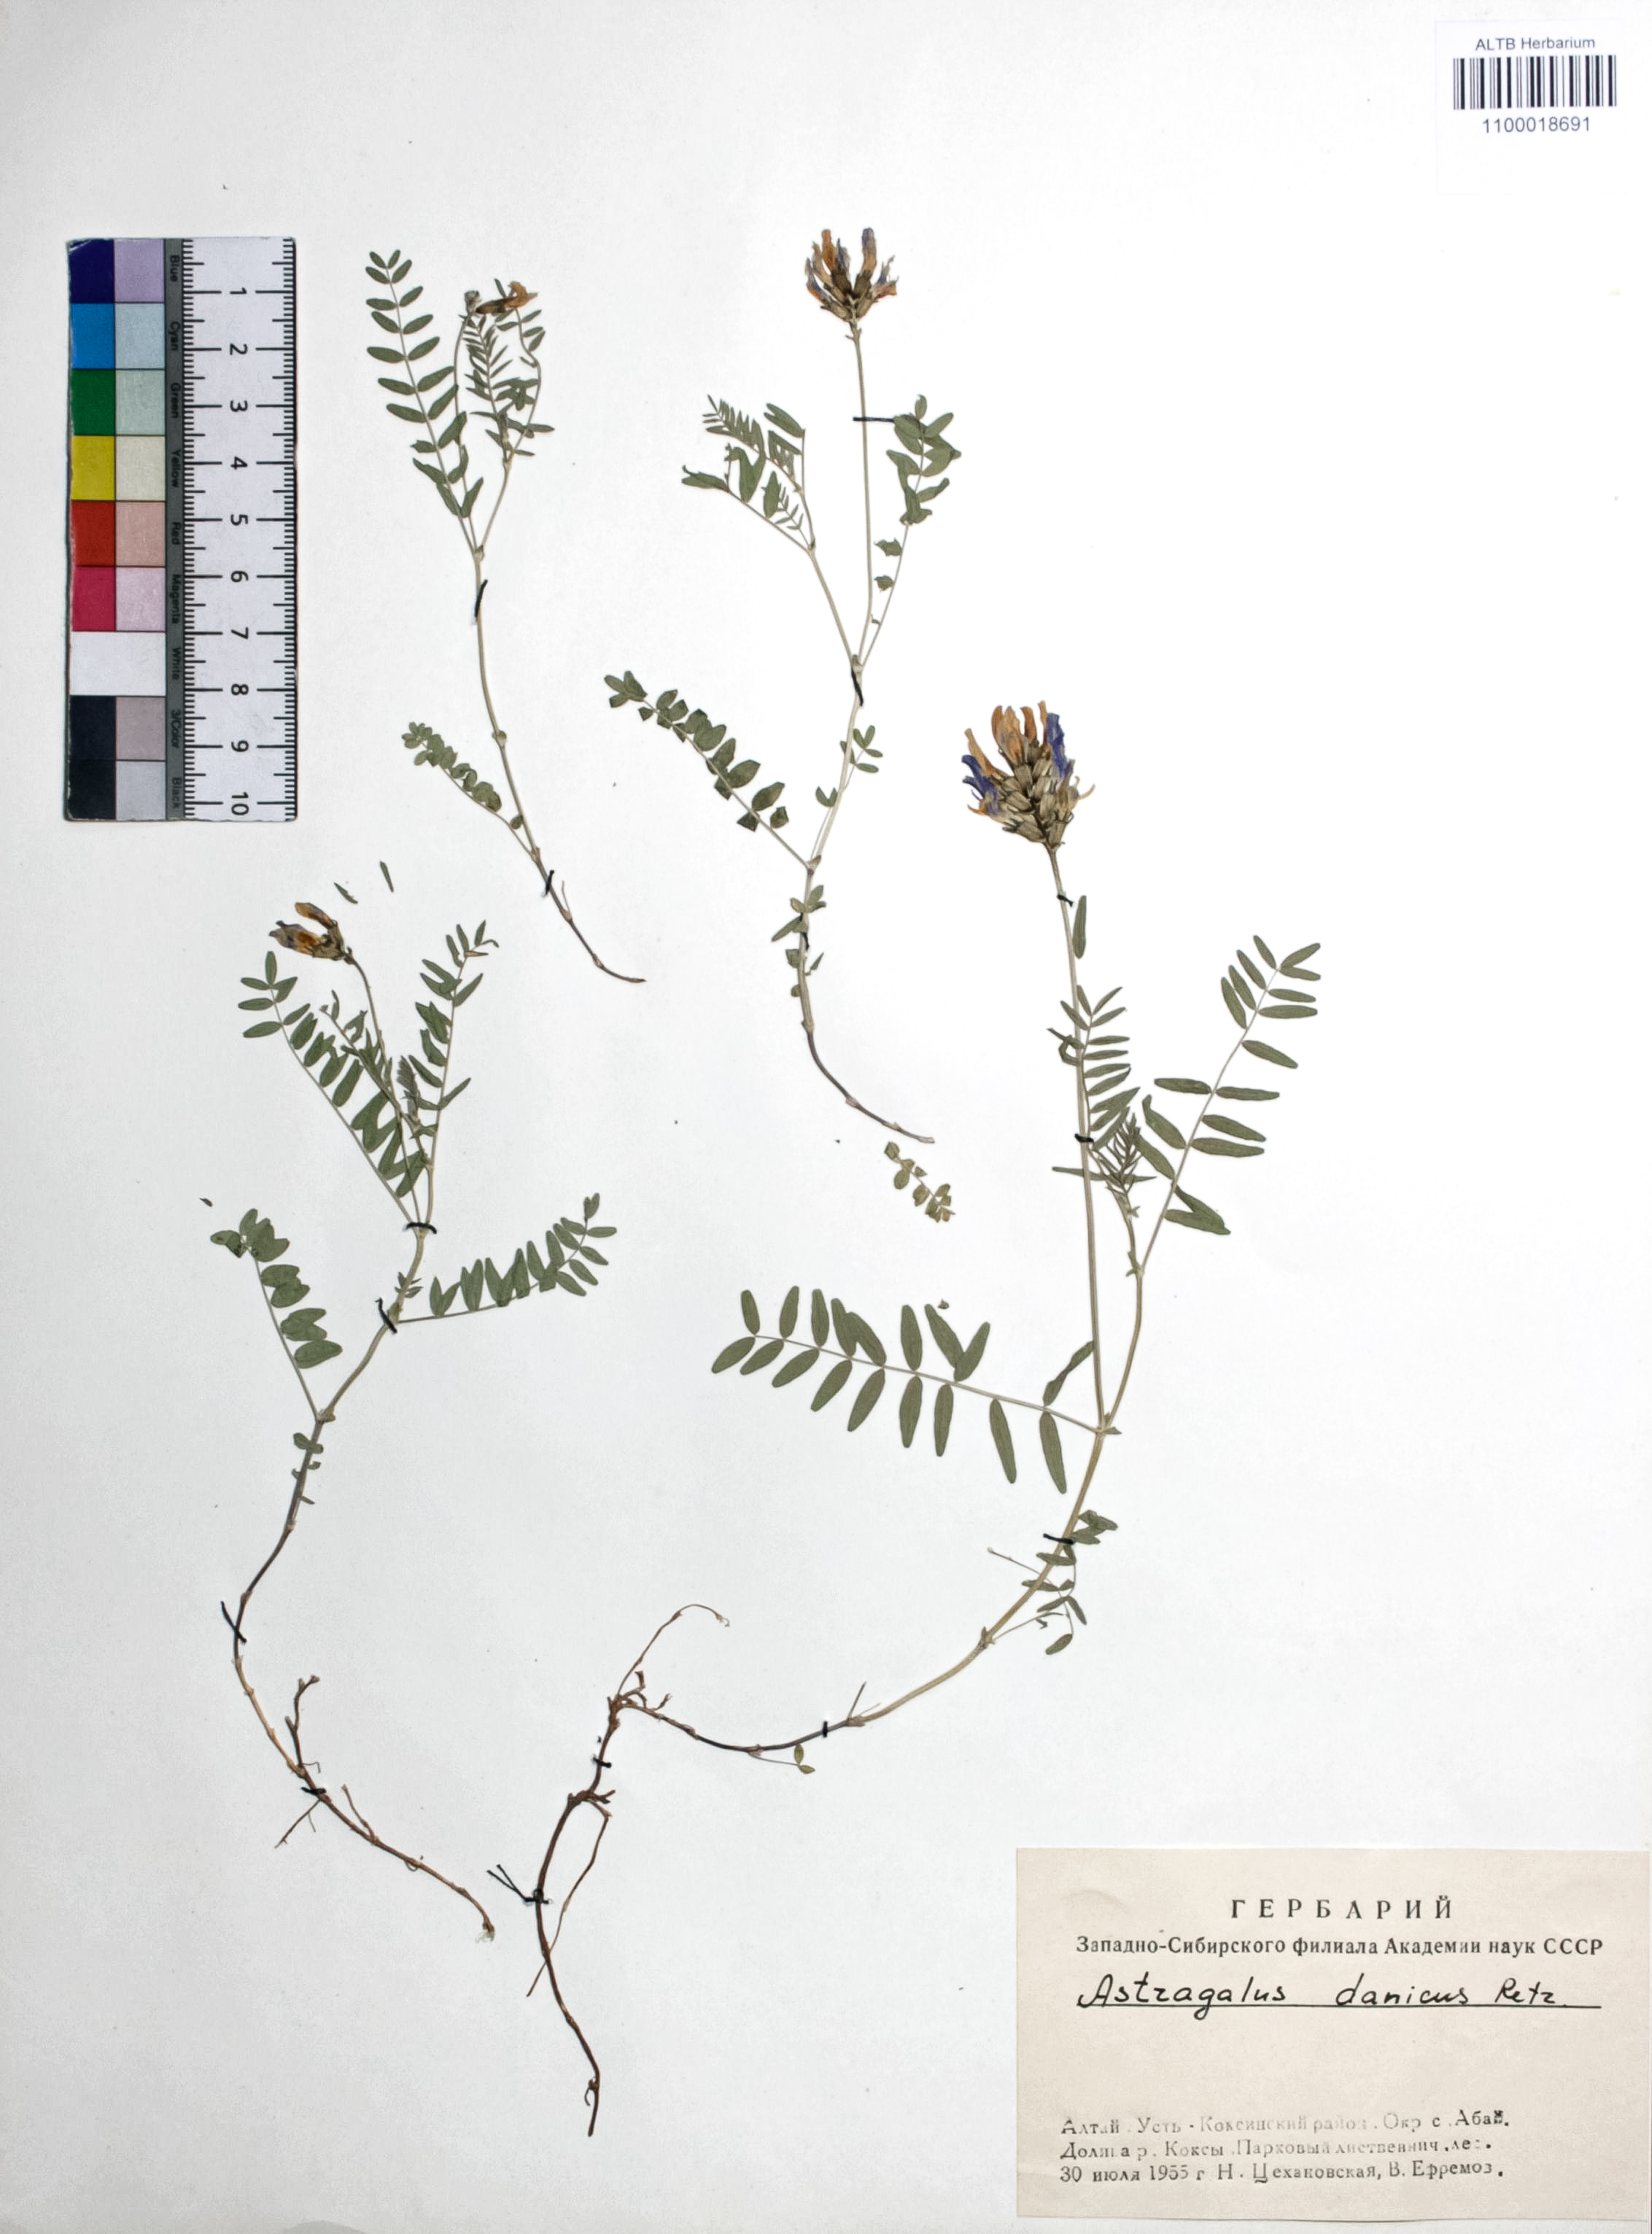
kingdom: Plantae
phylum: Tracheophyta
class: Magnoliopsida
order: Fabales
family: Fabaceae
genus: Astragalus
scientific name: Astragalus danicus
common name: Purple milk-vetch
